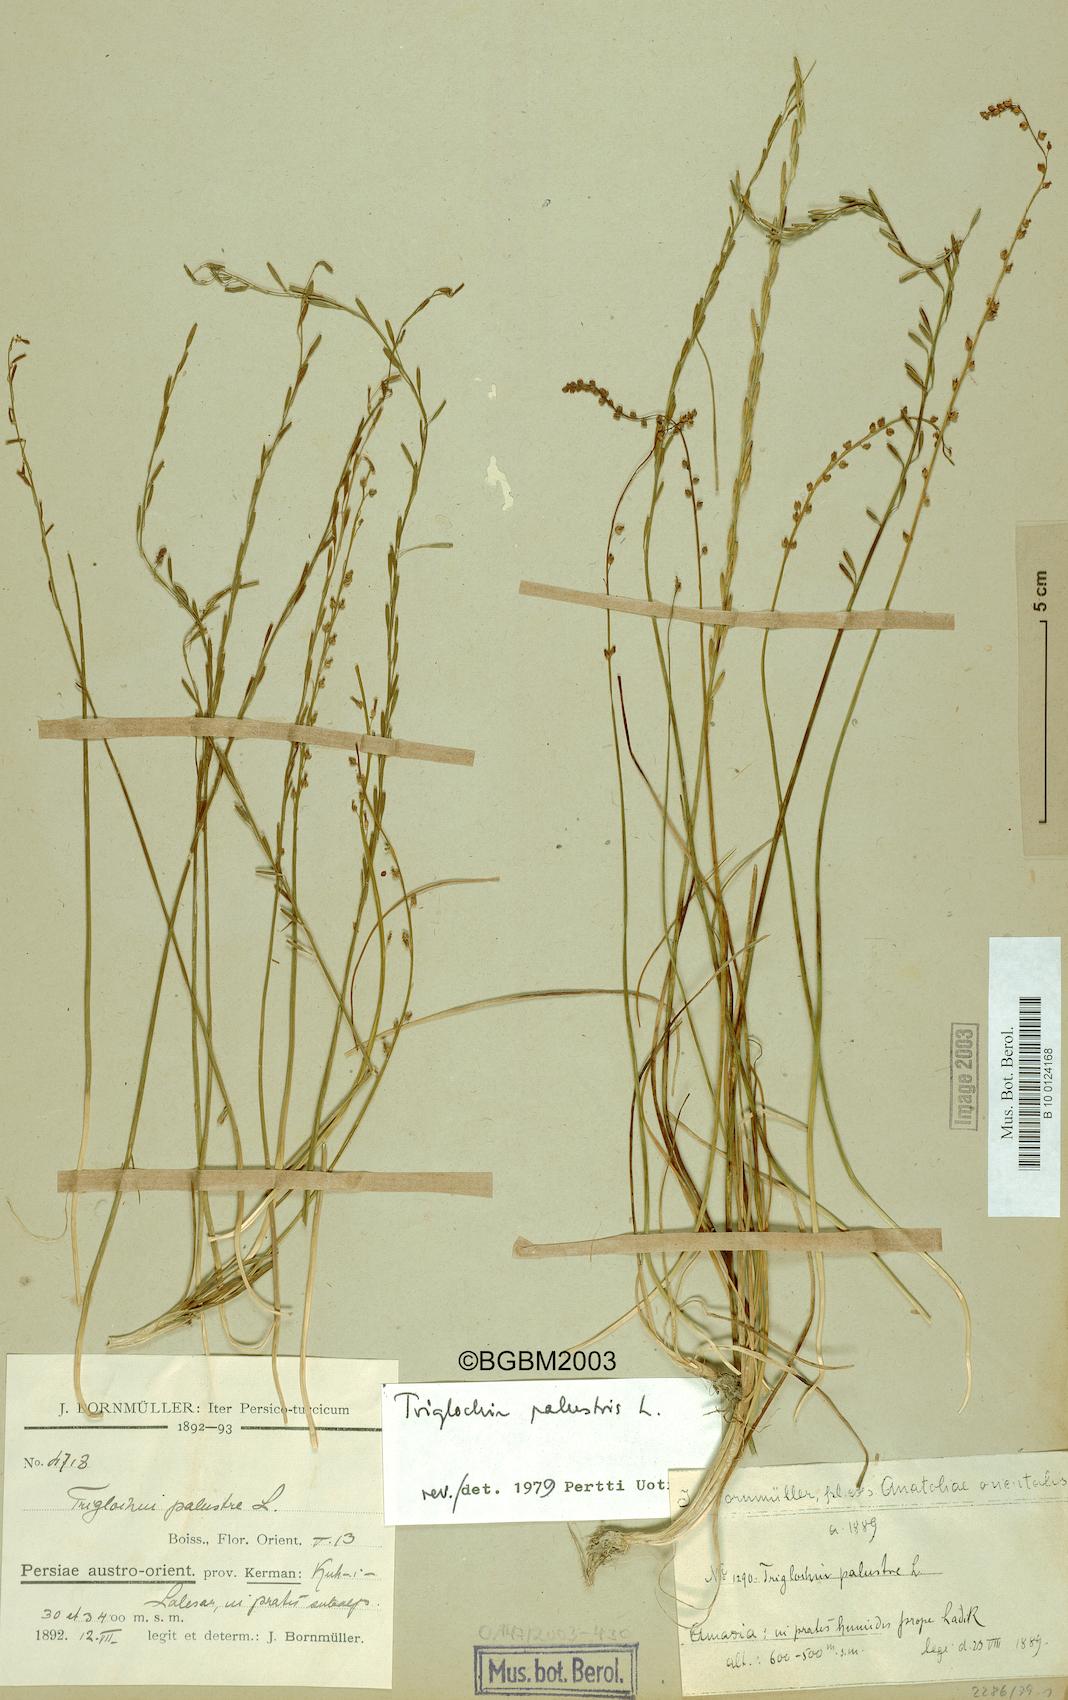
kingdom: Plantae
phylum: Tracheophyta
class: Liliopsida
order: Alismatales
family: Juncaginaceae
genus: Triglochin
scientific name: Triglochin palustris
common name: Marsh arrowgrass
